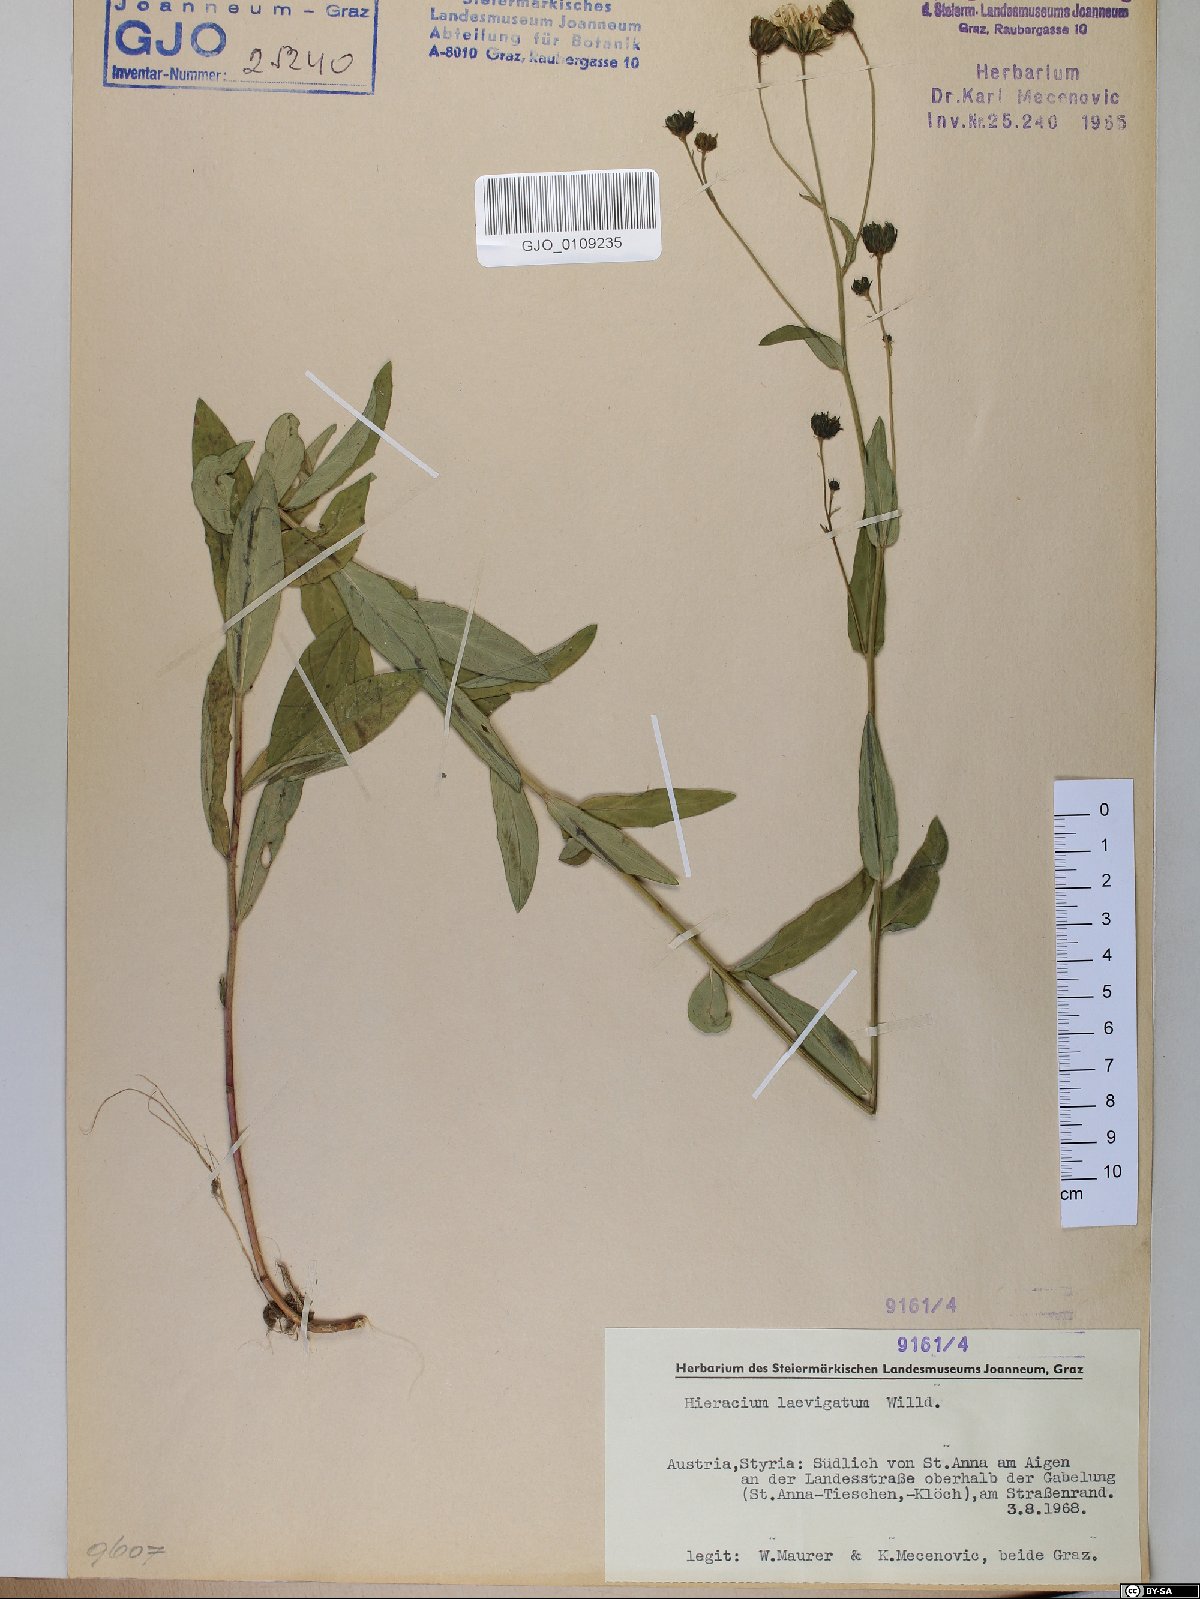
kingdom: Plantae
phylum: Tracheophyta
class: Magnoliopsida
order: Asterales
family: Asteraceae
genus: Hieracium
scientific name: Hieracium laevigatum
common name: Smooth hawkweed
